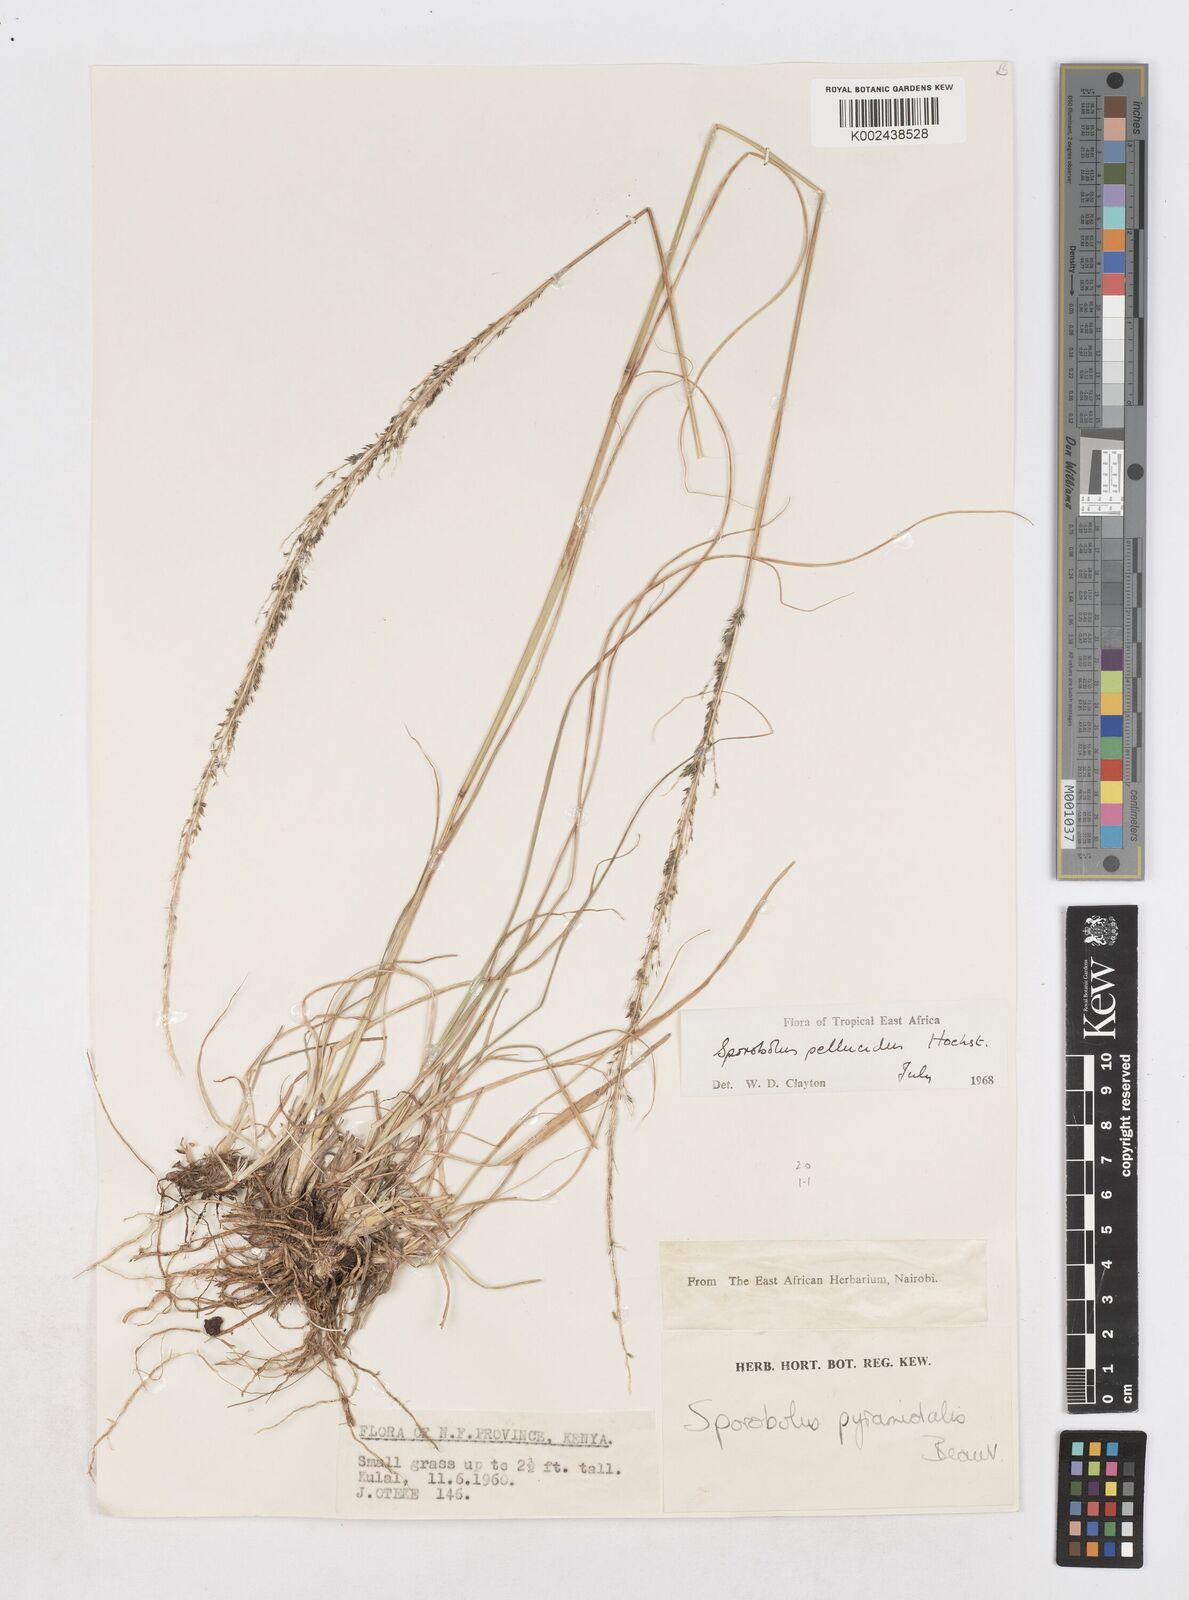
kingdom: Plantae
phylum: Tracheophyta
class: Liliopsida
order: Poales
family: Poaceae
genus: Sporobolus
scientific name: Sporobolus pellucidus
